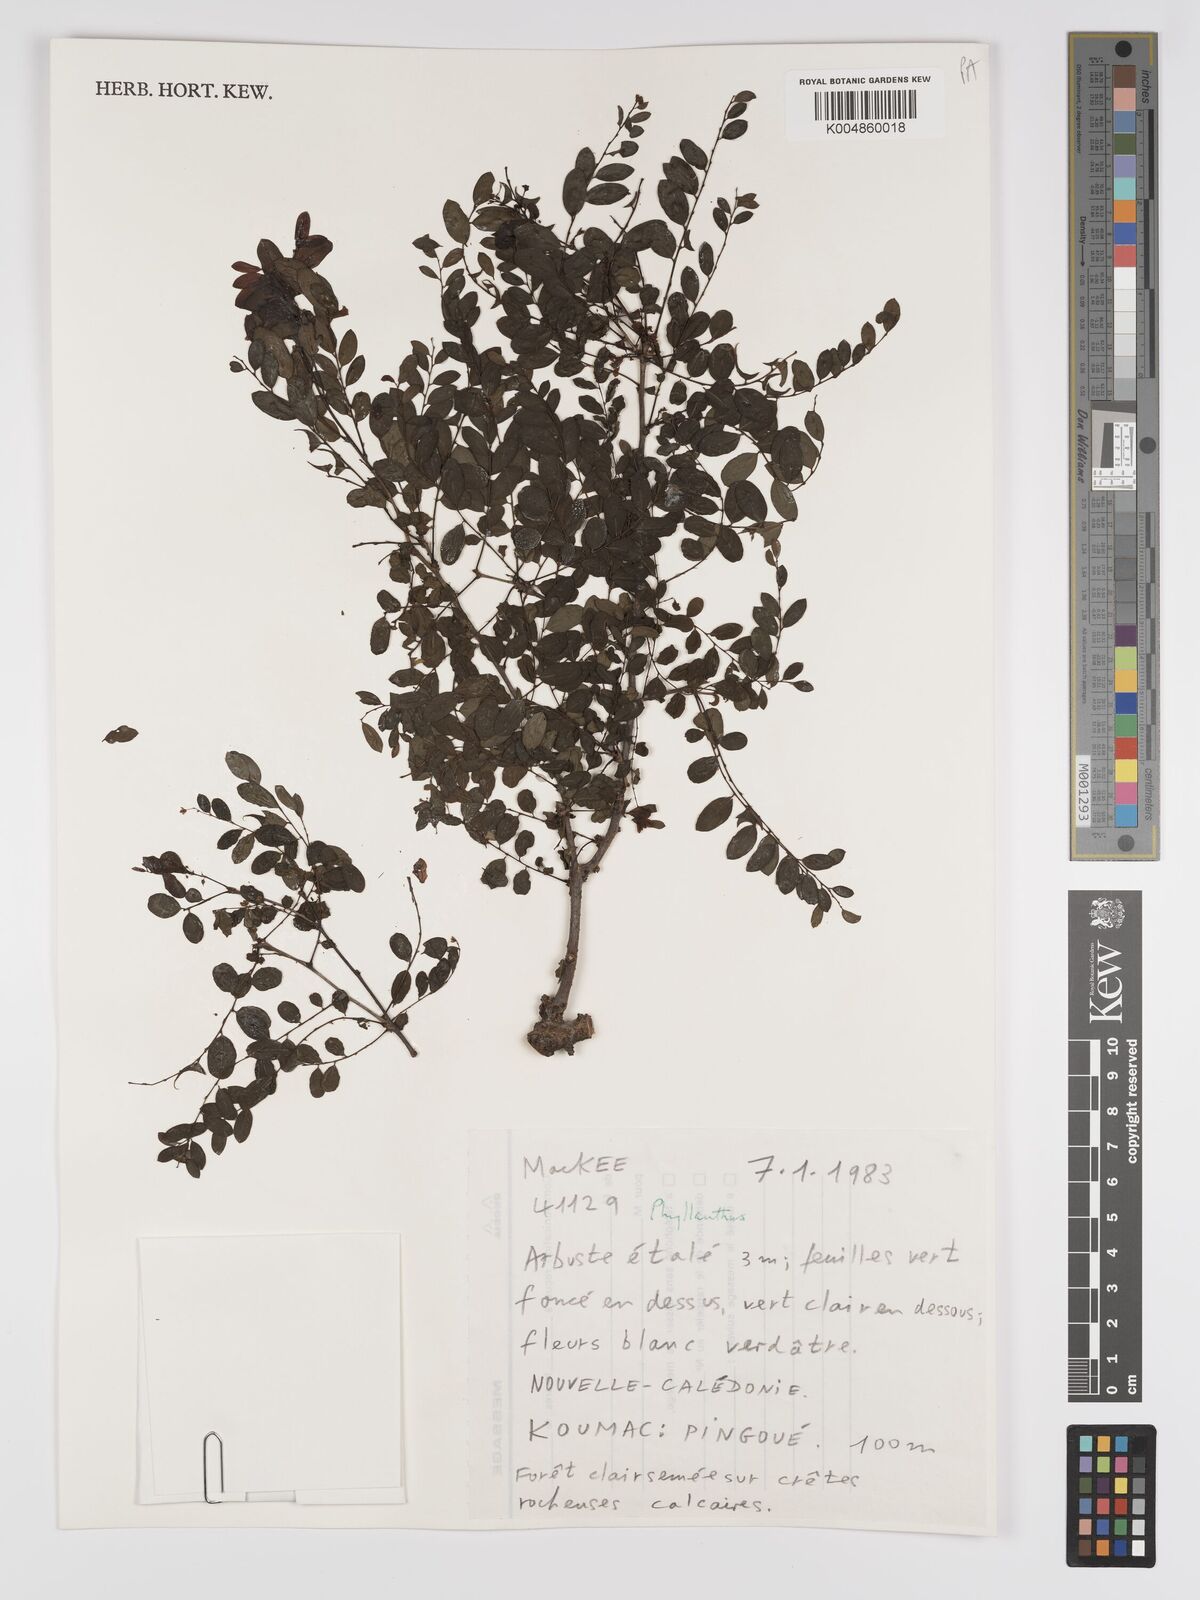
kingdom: Plantae
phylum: Tracheophyta
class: Magnoliopsida
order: Malpighiales
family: Phyllanthaceae
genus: Phyllanthus
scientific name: Phyllanthus
